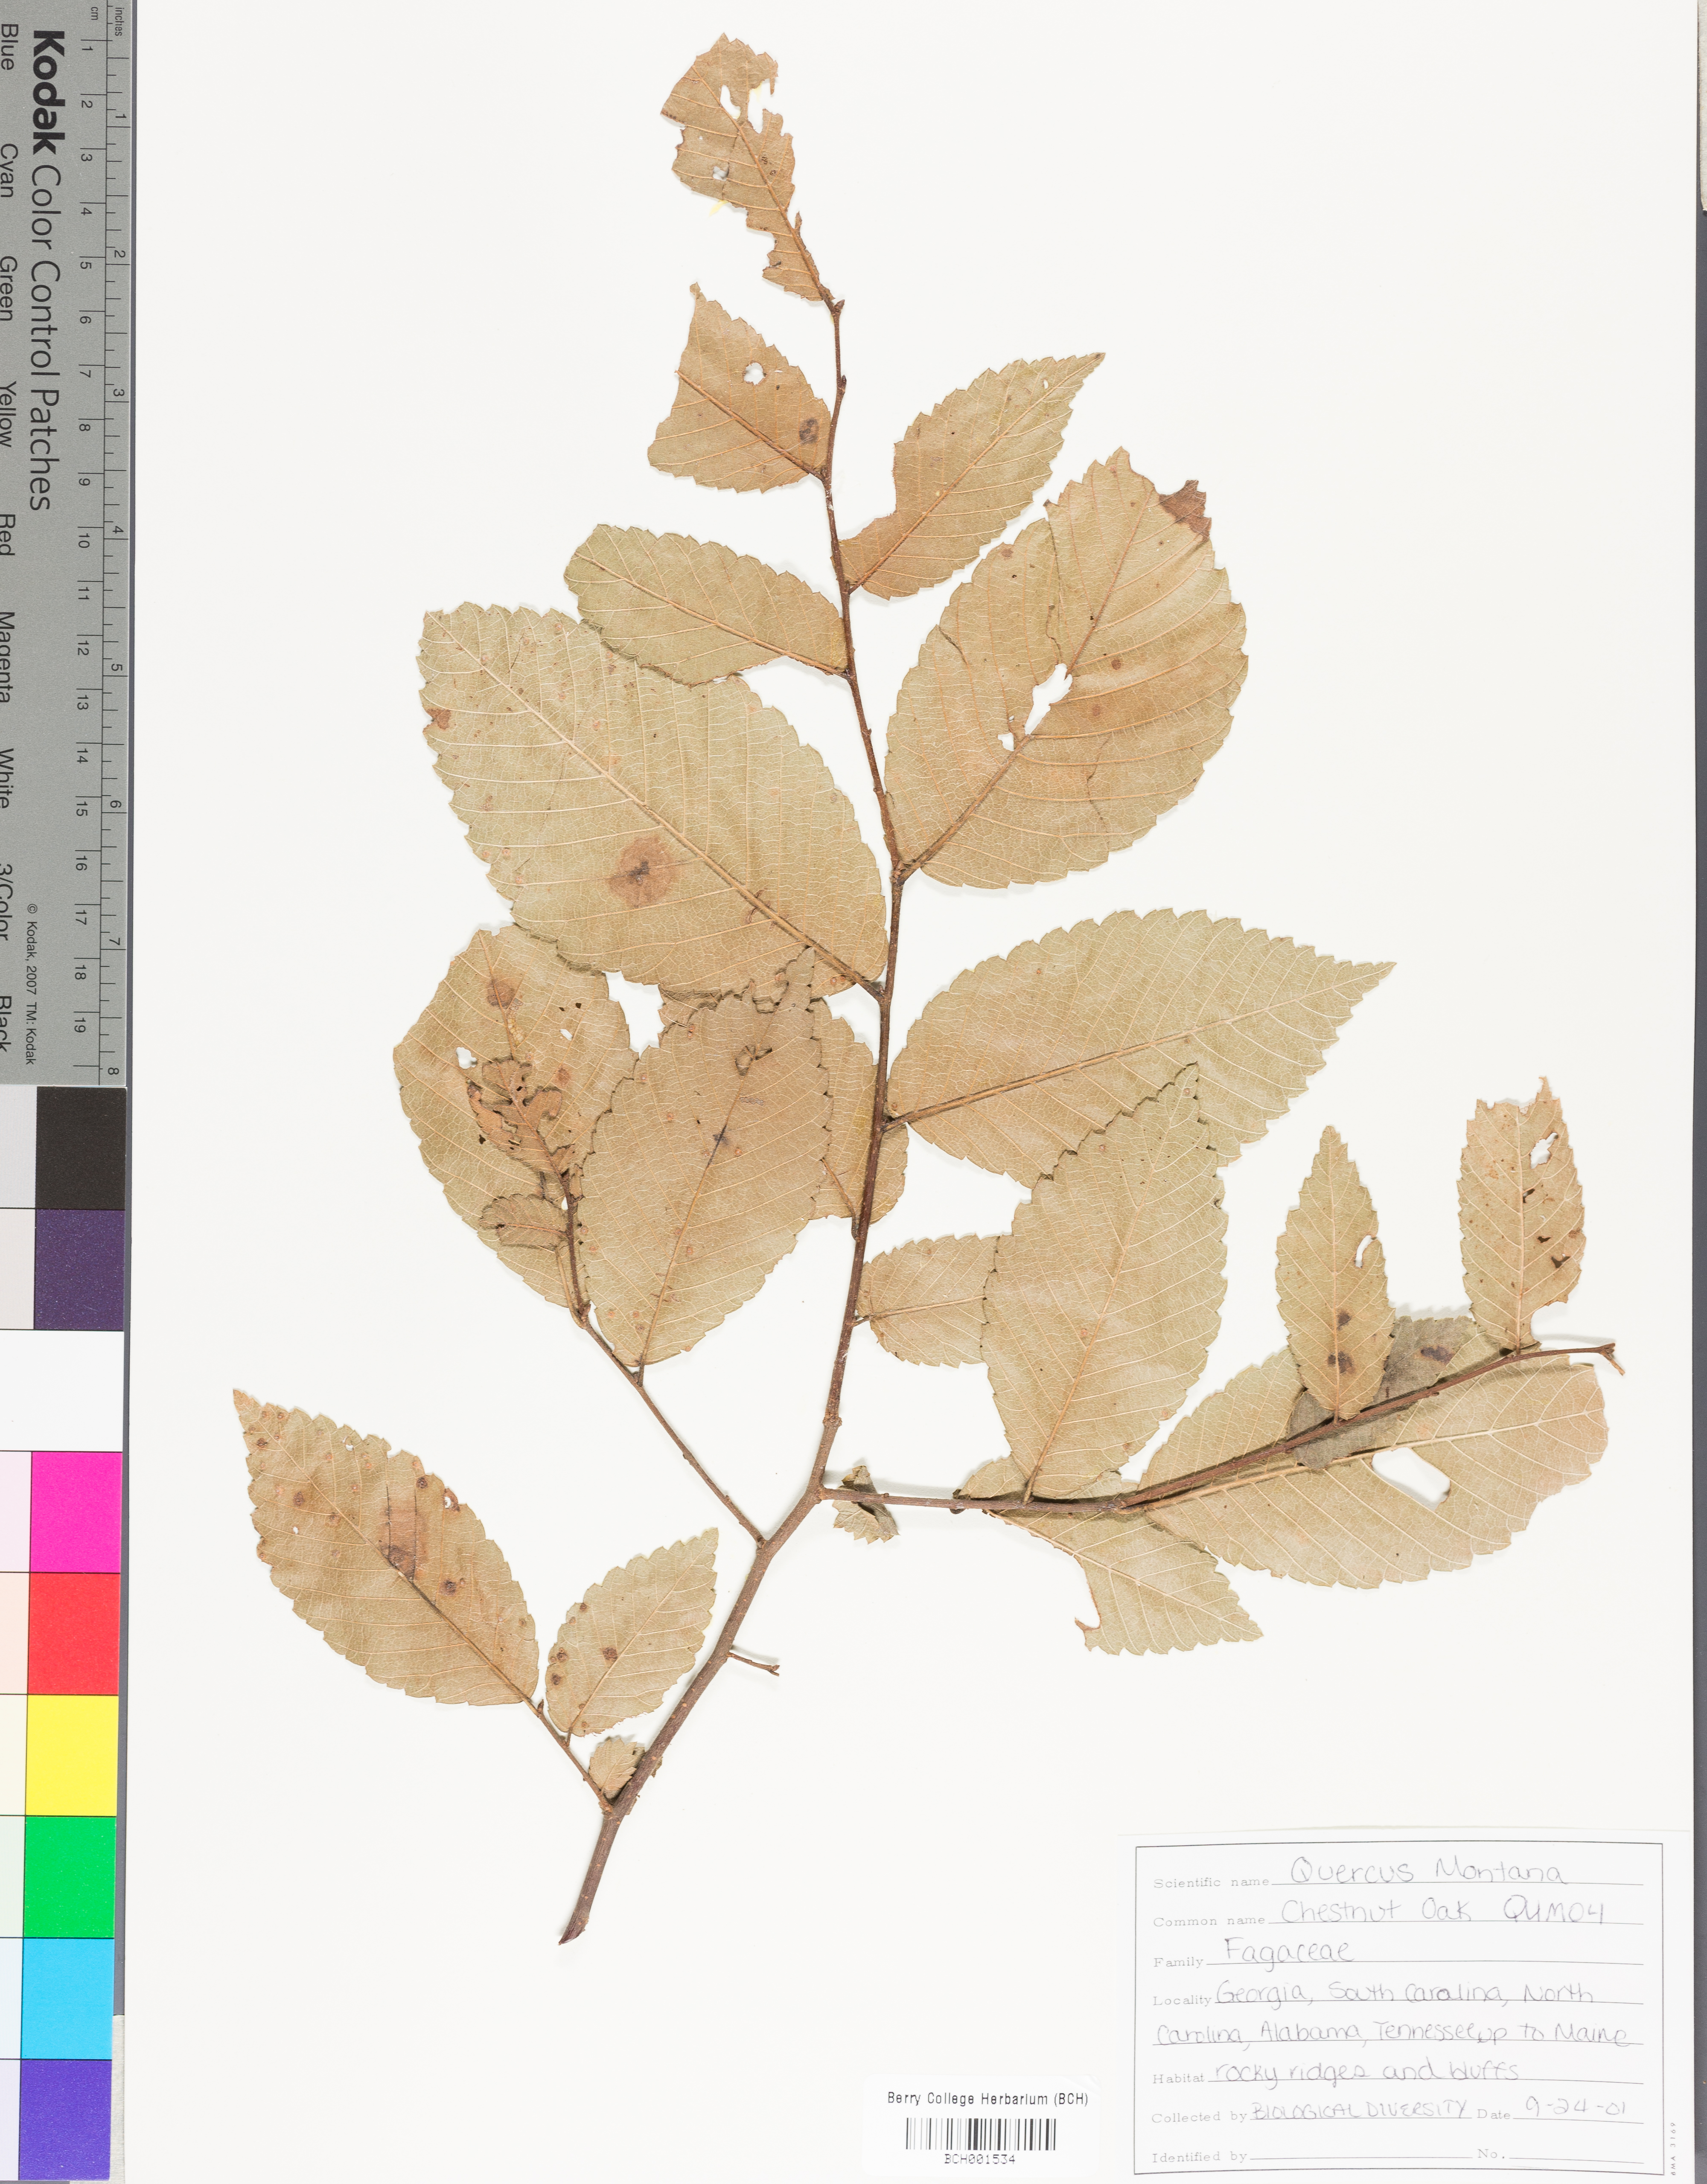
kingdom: Plantae
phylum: Tracheophyta
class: Magnoliopsida
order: Fagales
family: Fagaceae
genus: Quercus
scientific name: Quercus montana
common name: Chestnut oak
